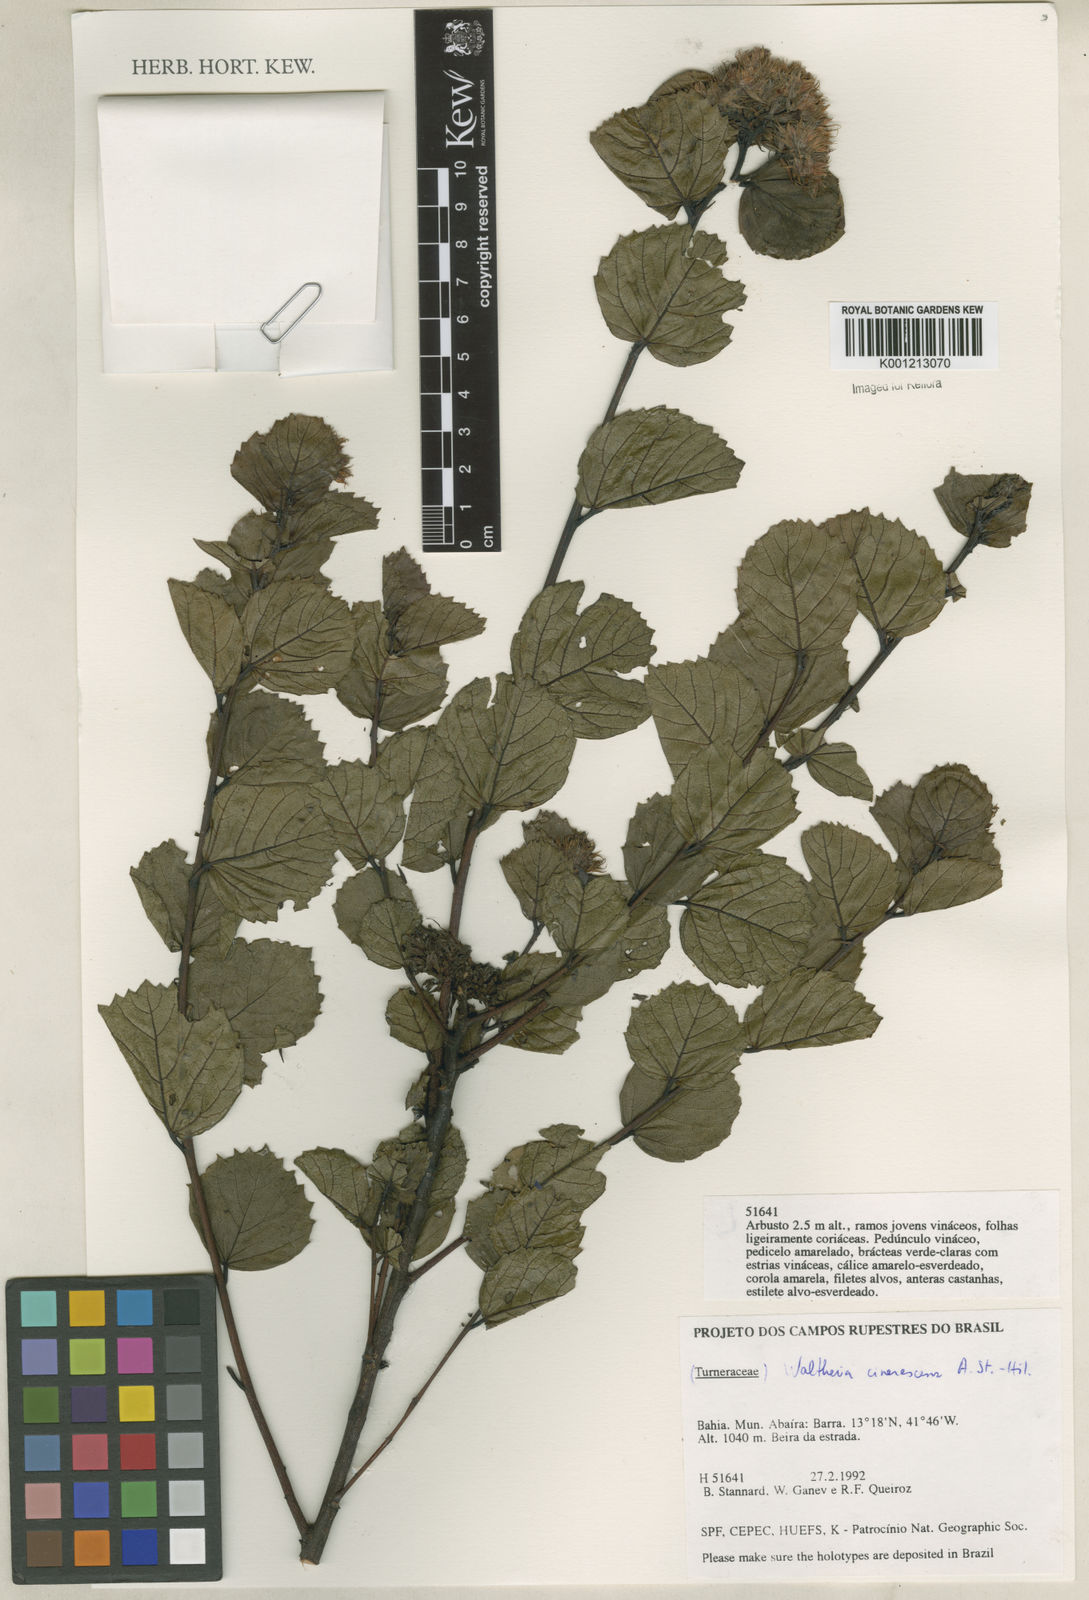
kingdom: Plantae
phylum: Tracheophyta
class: Magnoliopsida
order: Malvales
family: Malvaceae
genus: Waltheria
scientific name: Waltheria cinerescens
